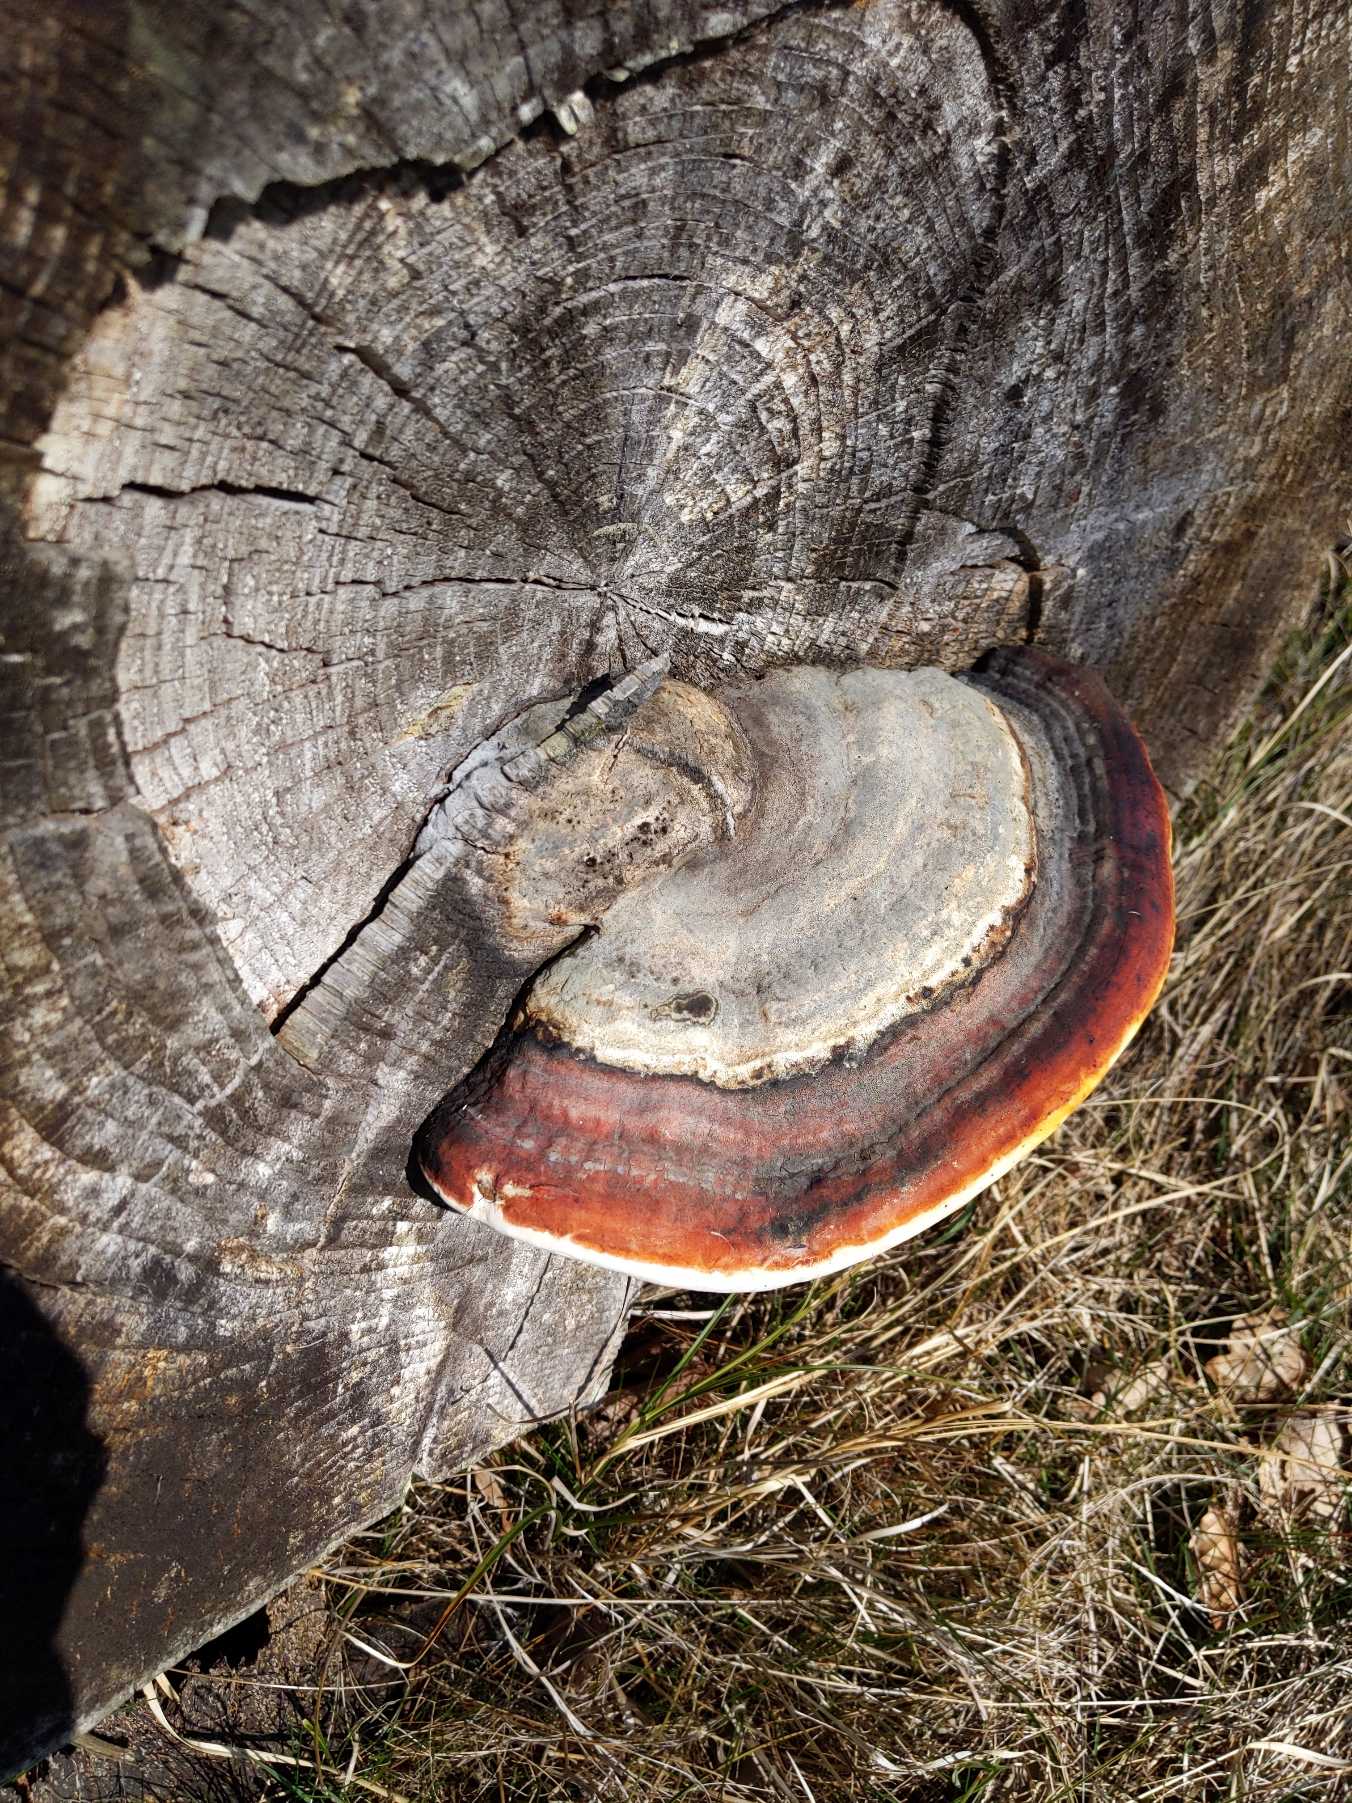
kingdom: Fungi
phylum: Basidiomycota
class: Agaricomycetes
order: Polyporales
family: Fomitopsidaceae
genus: Fomitopsis
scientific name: Fomitopsis pinicola
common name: Randbæltet hovporesvamp
